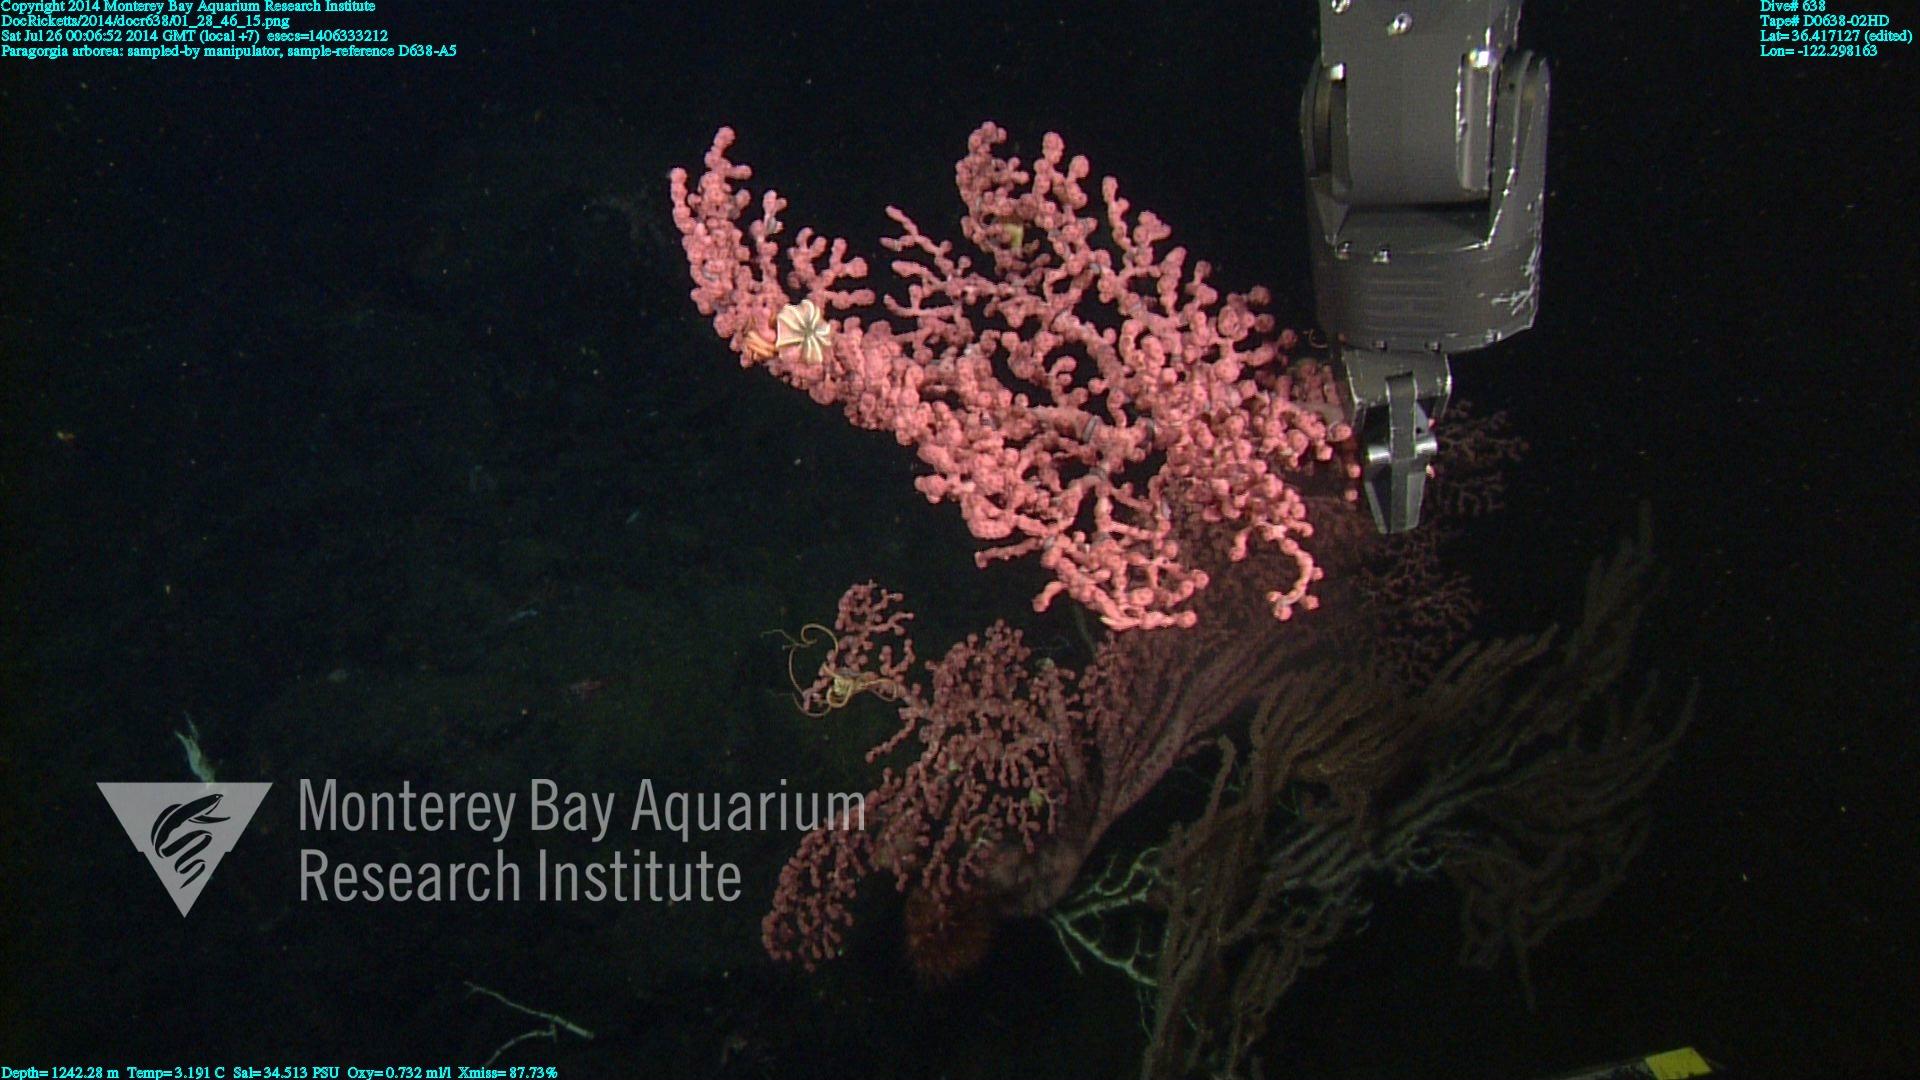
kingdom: Animalia
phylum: Cnidaria
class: Anthozoa
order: Scleralcyonacea
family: Coralliidae
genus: Paragorgia
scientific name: Paragorgia arborea
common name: Bubble gum coral
